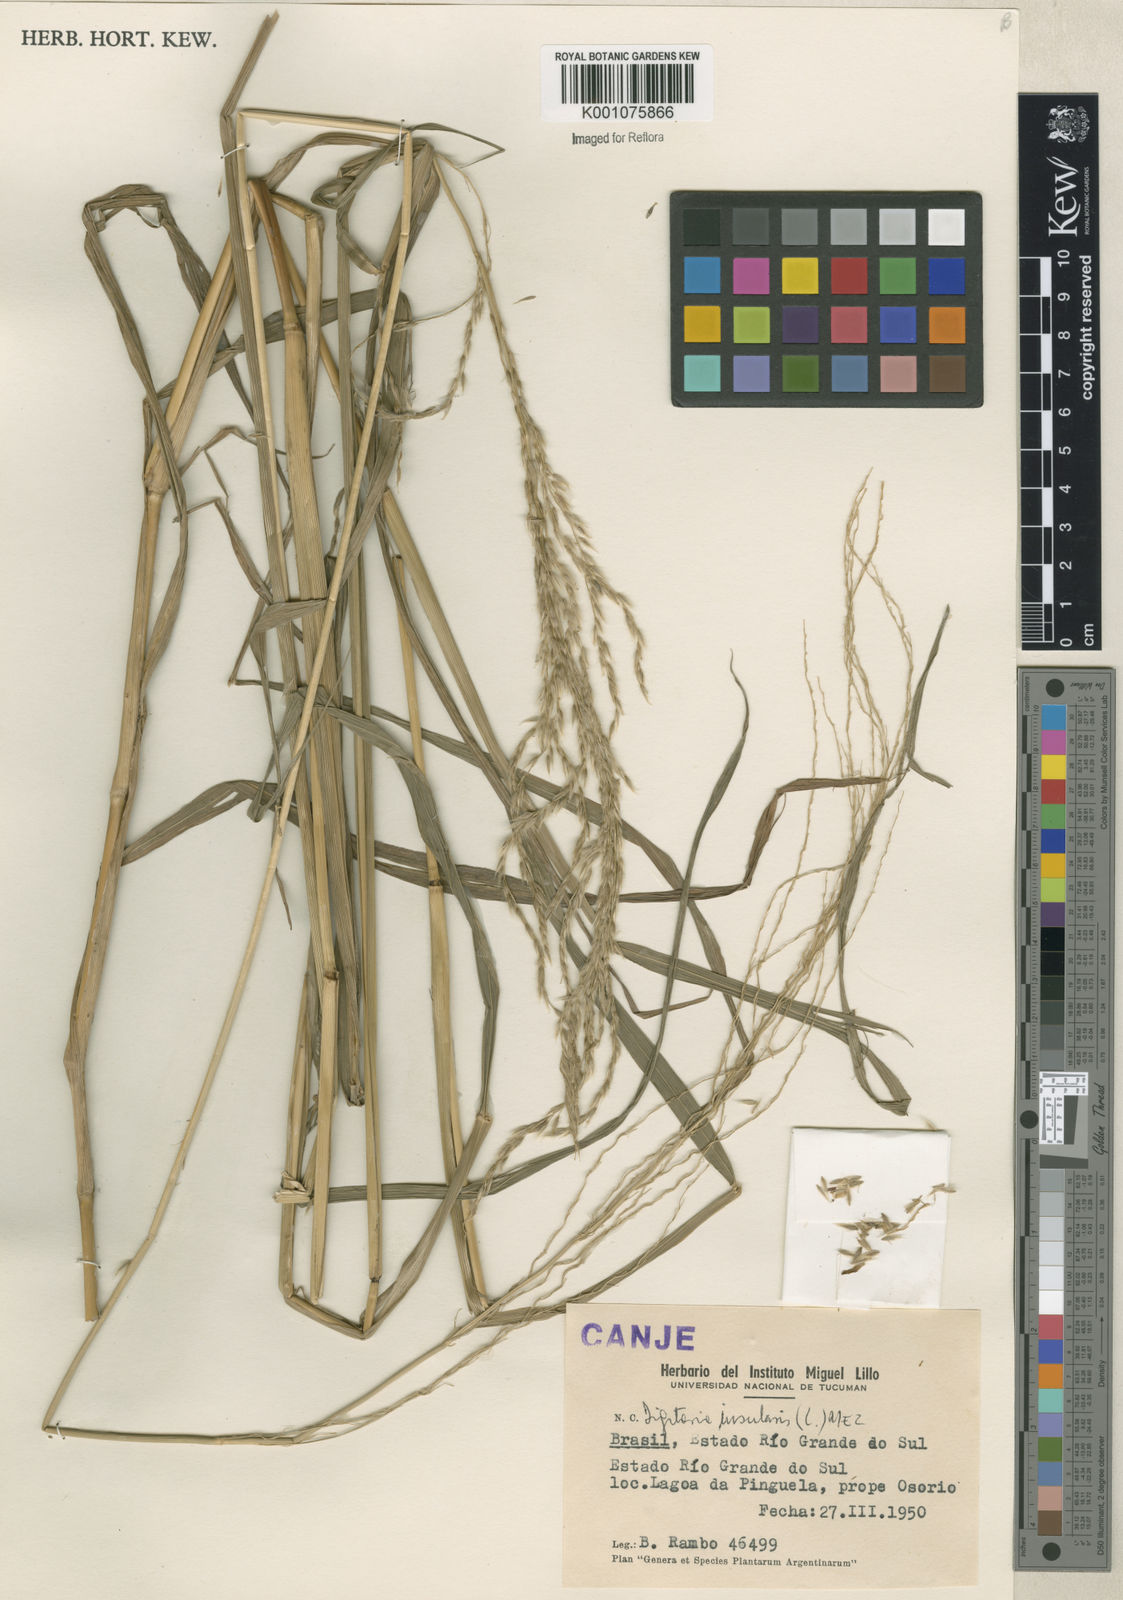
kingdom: Plantae
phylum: Tracheophyta
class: Liliopsida
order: Poales
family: Poaceae
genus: Digitaria
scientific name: Digitaria
